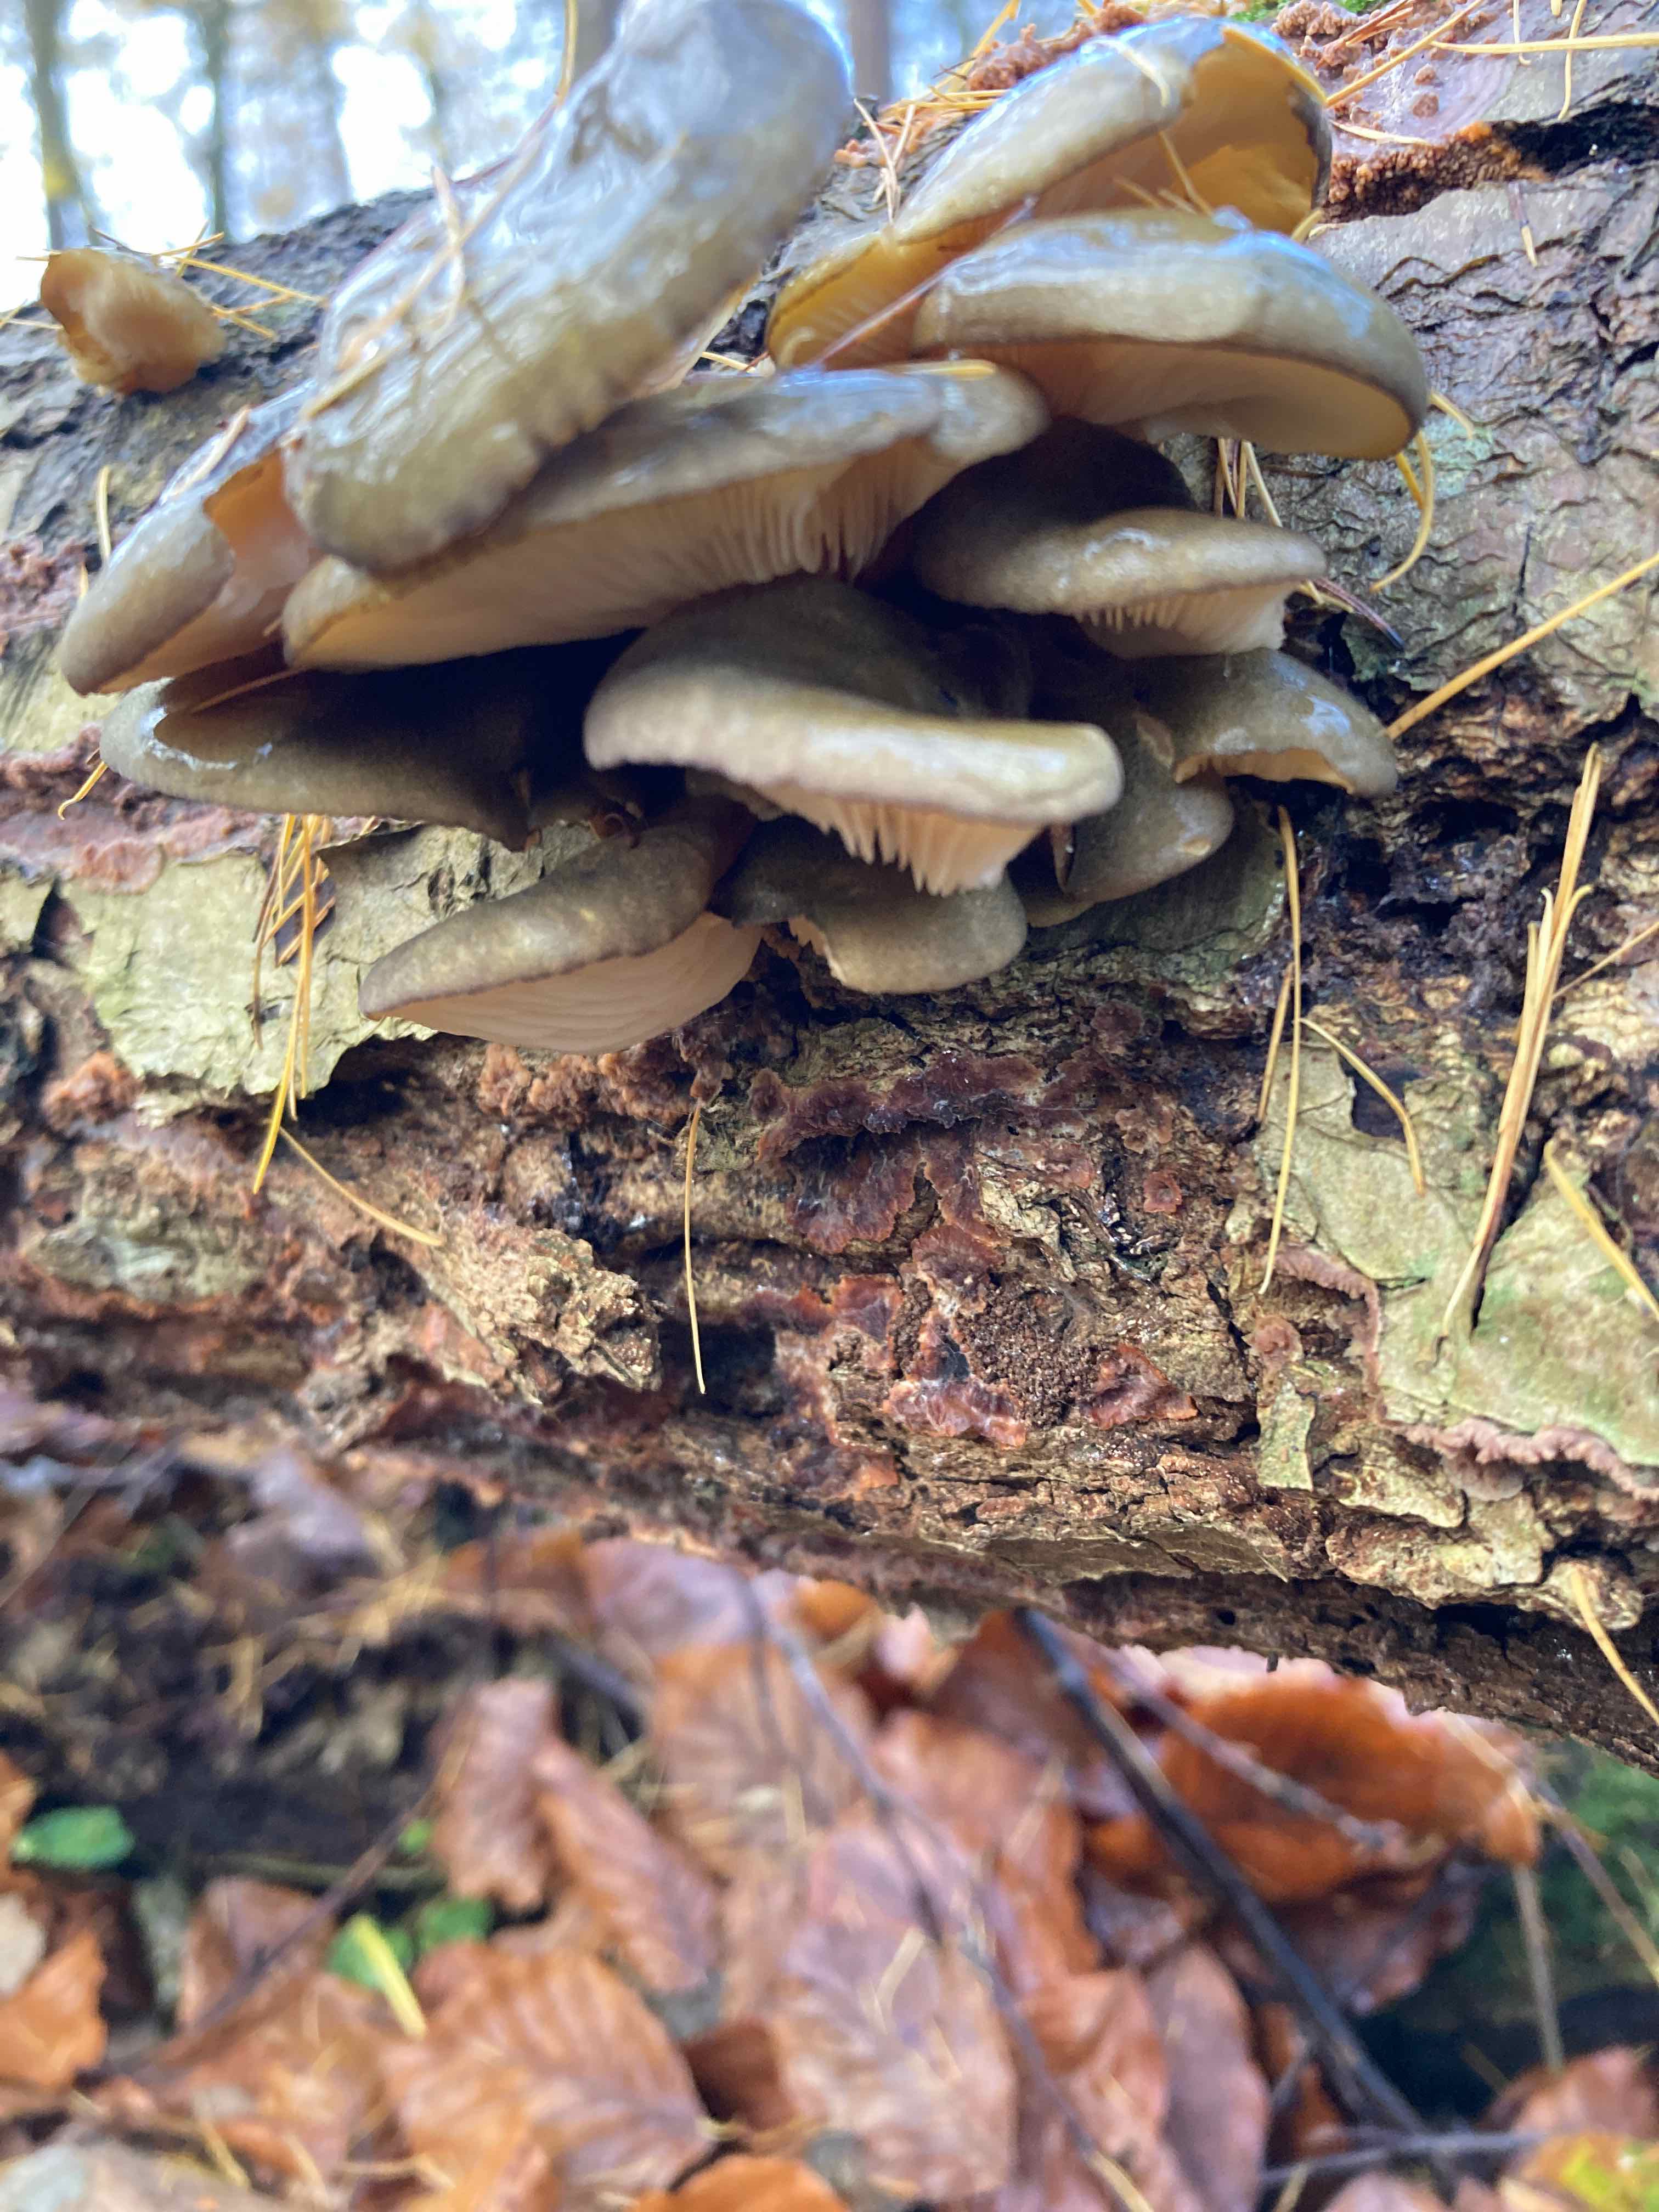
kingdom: Fungi
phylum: Basidiomycota
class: Agaricomycetes
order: Agaricales
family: Sarcomyxaceae
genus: Sarcomyxa
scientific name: Sarcomyxa serotina
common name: gummihat
